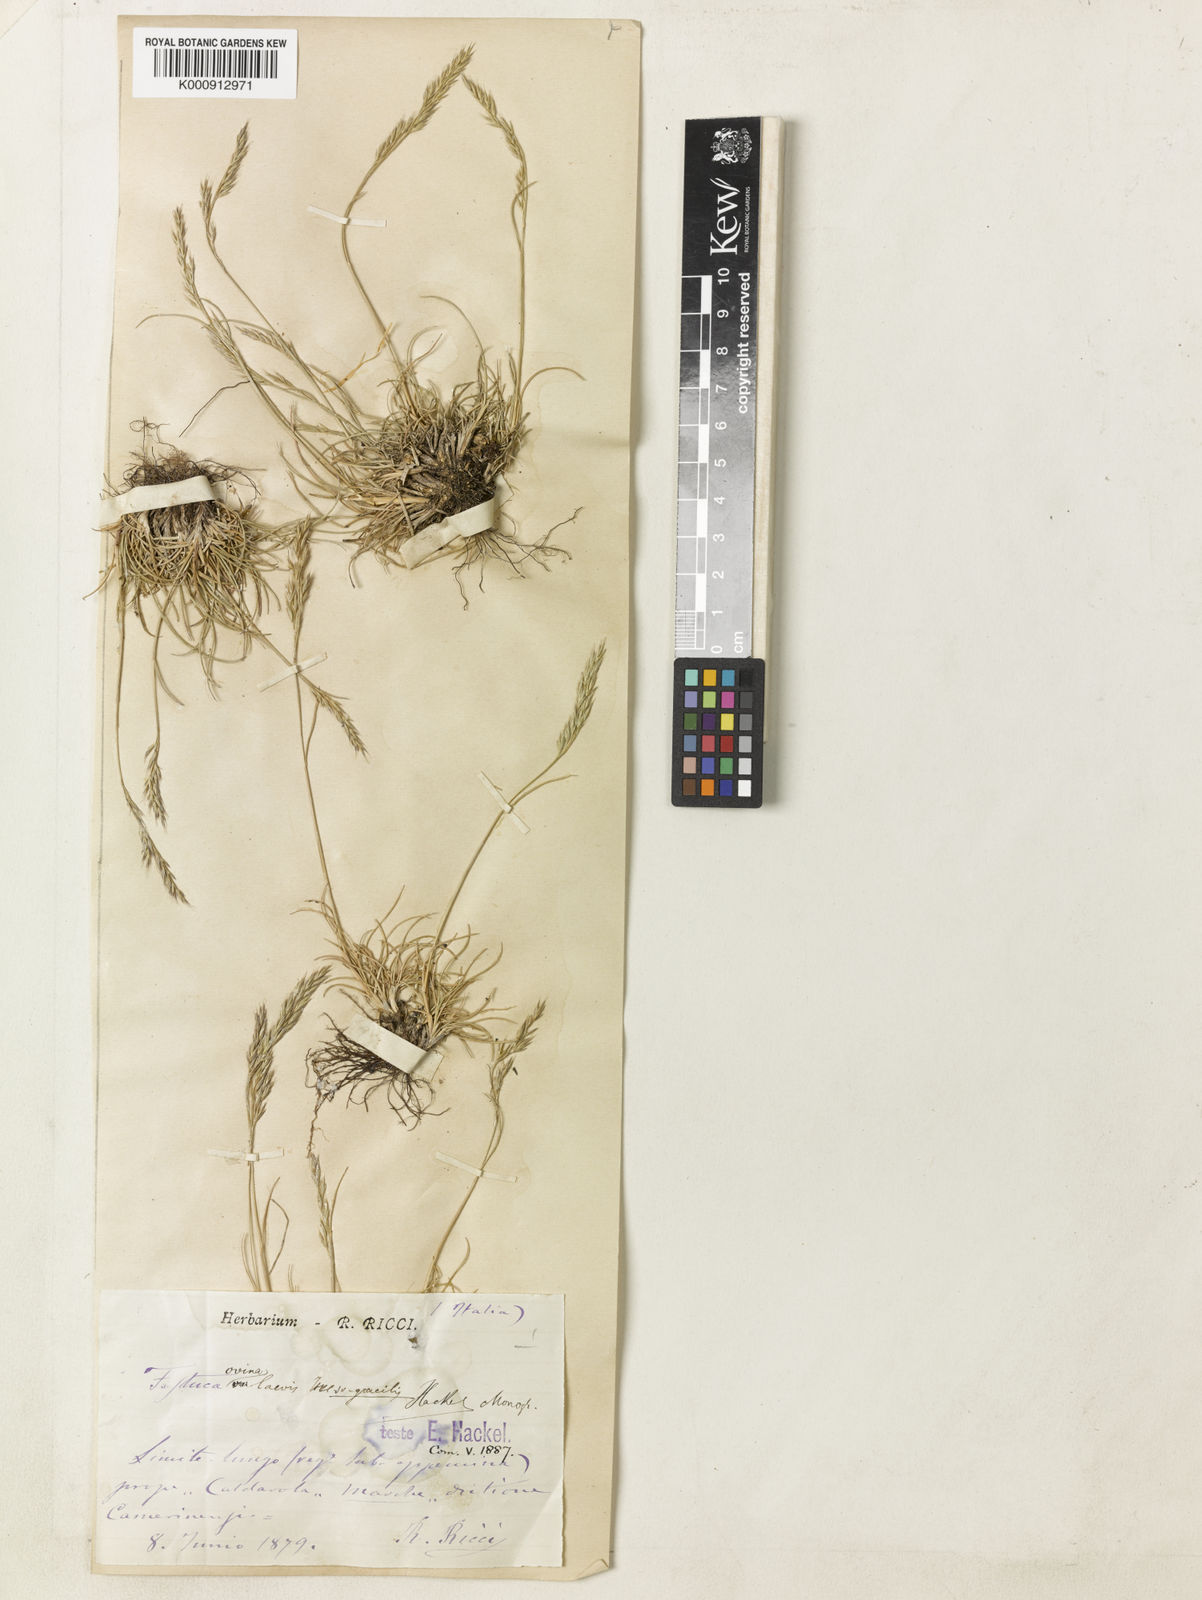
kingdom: Plantae
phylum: Tracheophyta
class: Liliopsida
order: Poales
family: Poaceae
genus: Festuca
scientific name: Festuca circummediterranea
